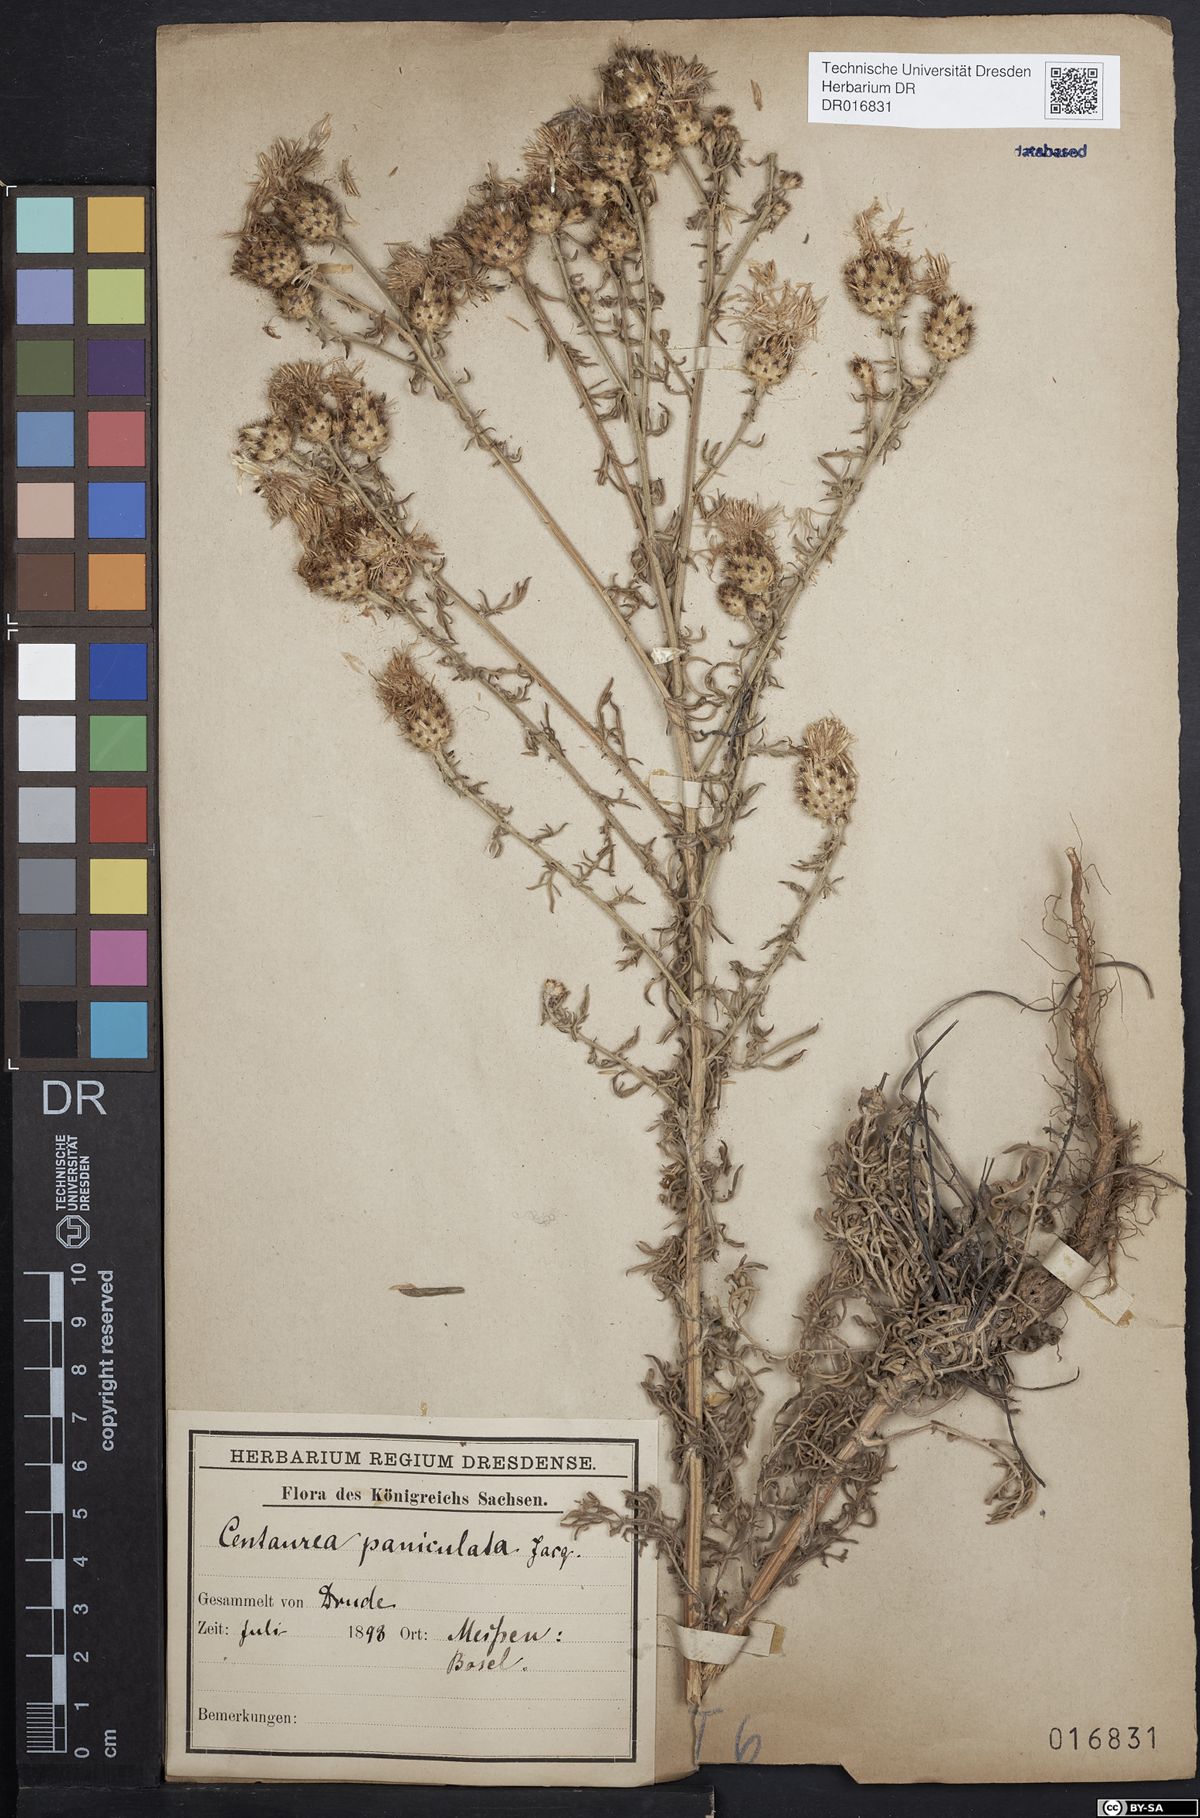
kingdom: Plantae
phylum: Tracheophyta
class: Magnoliopsida
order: Asterales
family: Asteraceae
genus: Centaurea
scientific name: Centaurea stoebe
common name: Spotted knapweed
